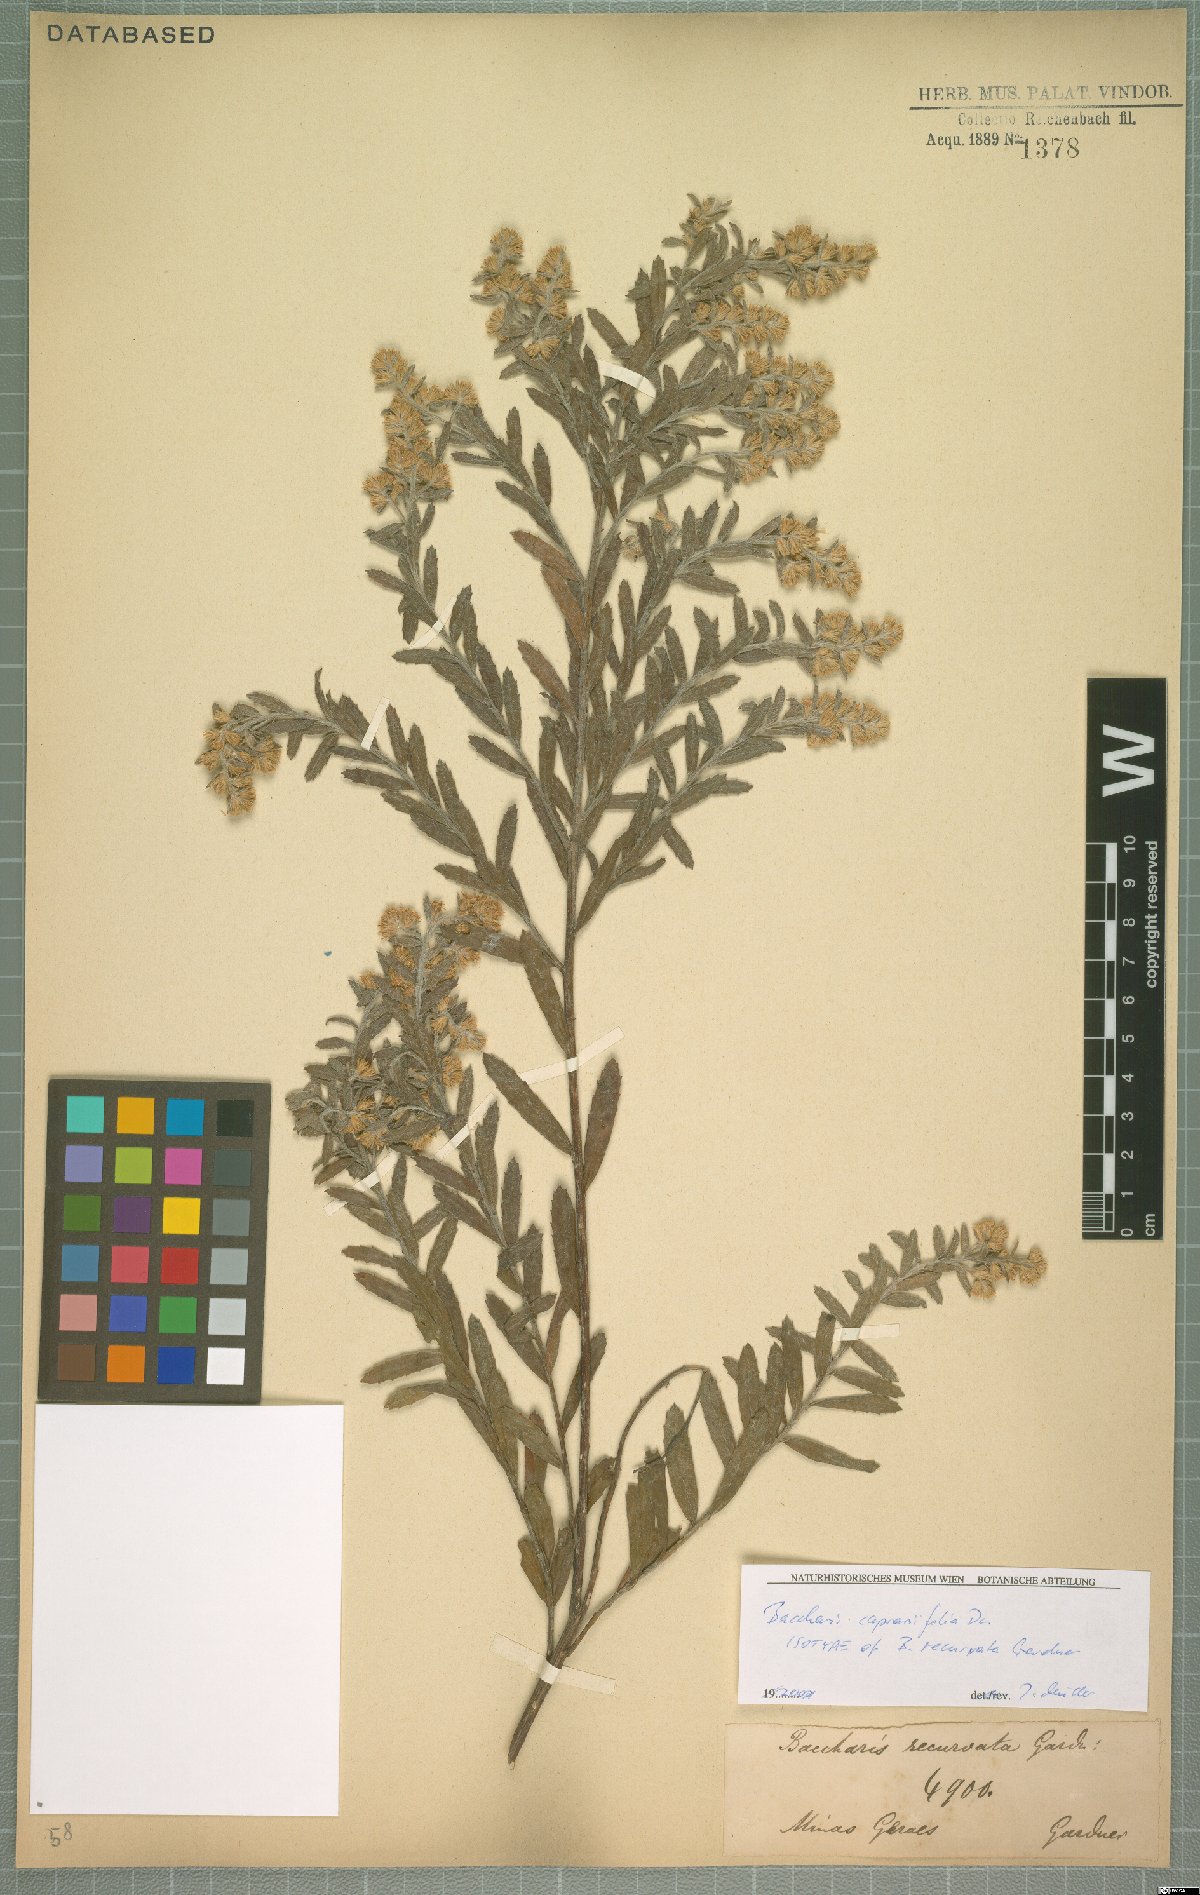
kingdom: Plantae
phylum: Tracheophyta
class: Magnoliopsida
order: Asterales
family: Asteraceae
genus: Baccharis
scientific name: Baccharis caprariifolia
